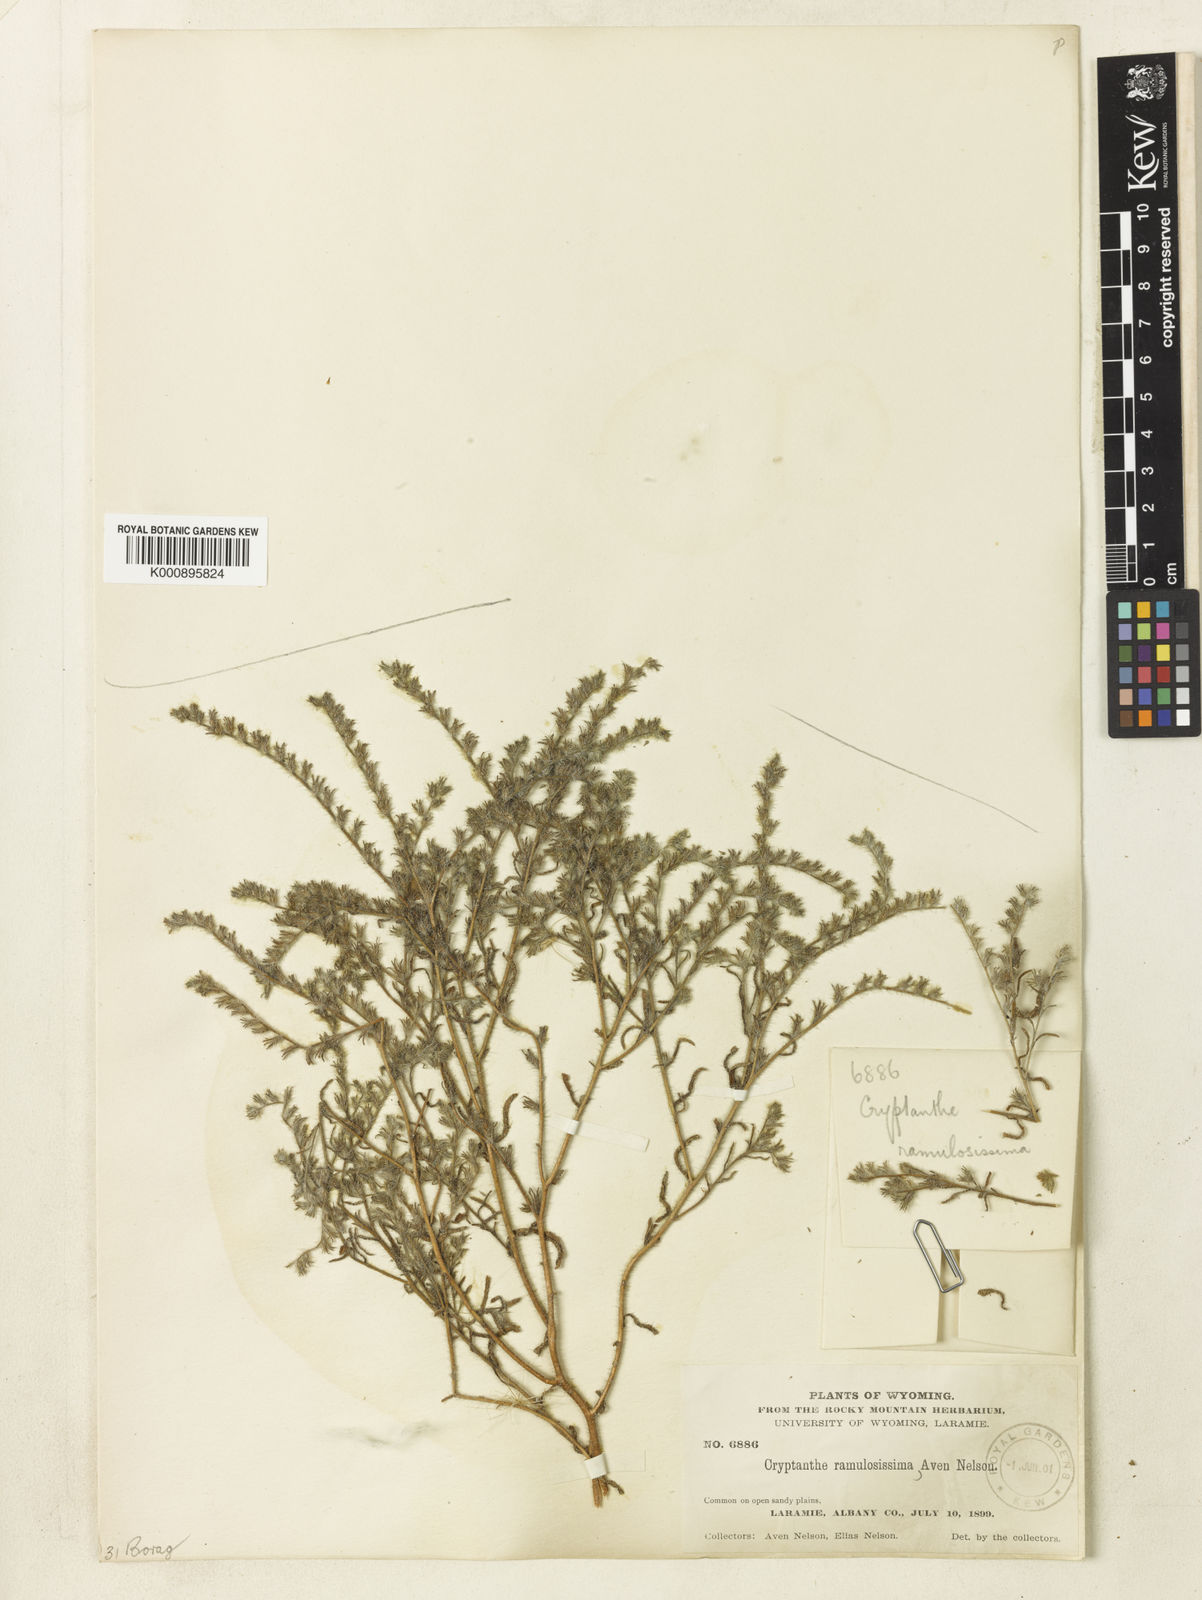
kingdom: Plantae
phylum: Tracheophyta
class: Magnoliopsida
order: Boraginales
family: Boraginaceae
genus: Cryptantha
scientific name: Cryptantha fendleri
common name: Sand-dune cryptantha
